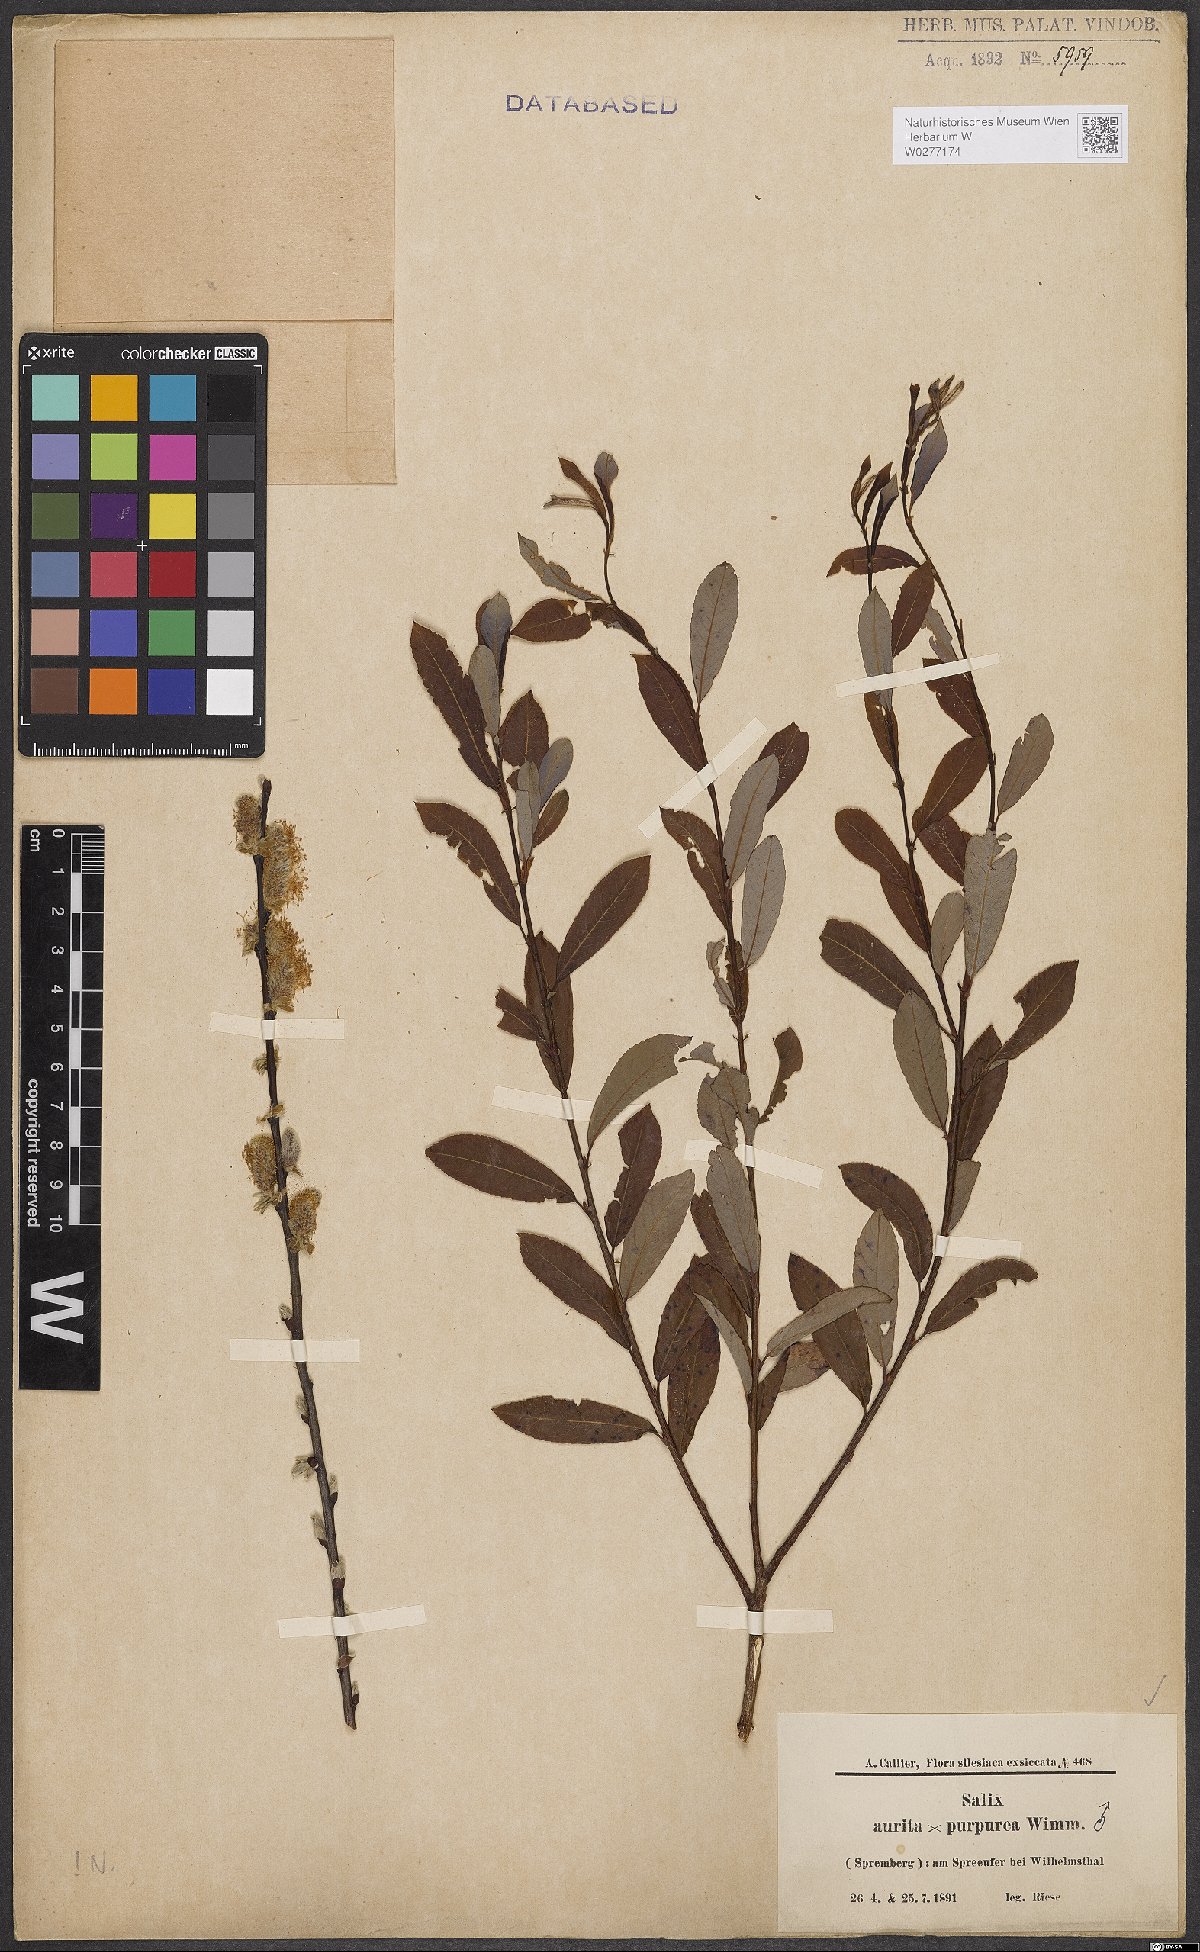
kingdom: Plantae
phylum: Tracheophyta
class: Magnoliopsida
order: Malpighiales
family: Salicaceae
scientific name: Salicaceae
